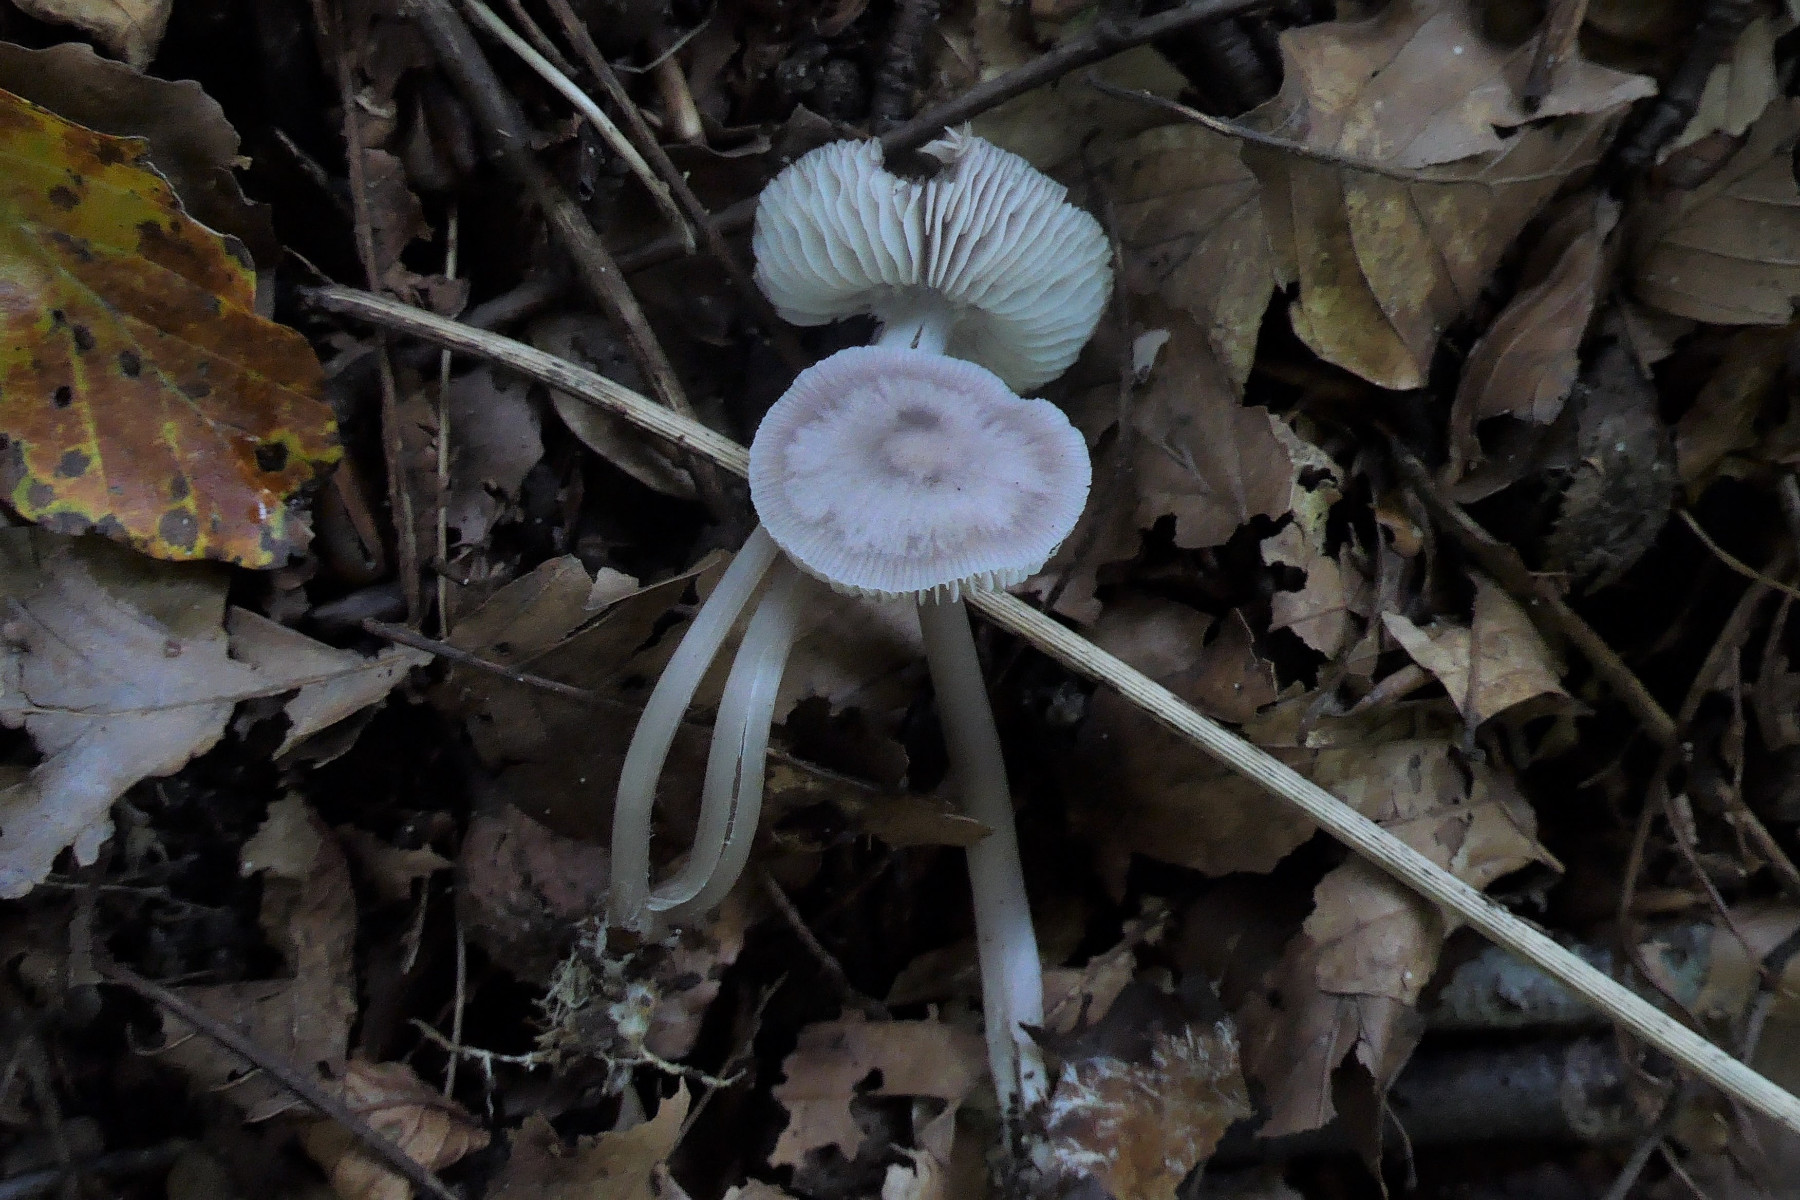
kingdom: Fungi
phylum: Basidiomycota
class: Agaricomycetes
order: Agaricales
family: Mycenaceae
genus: Mycena
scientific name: Mycena
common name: huesvamp
